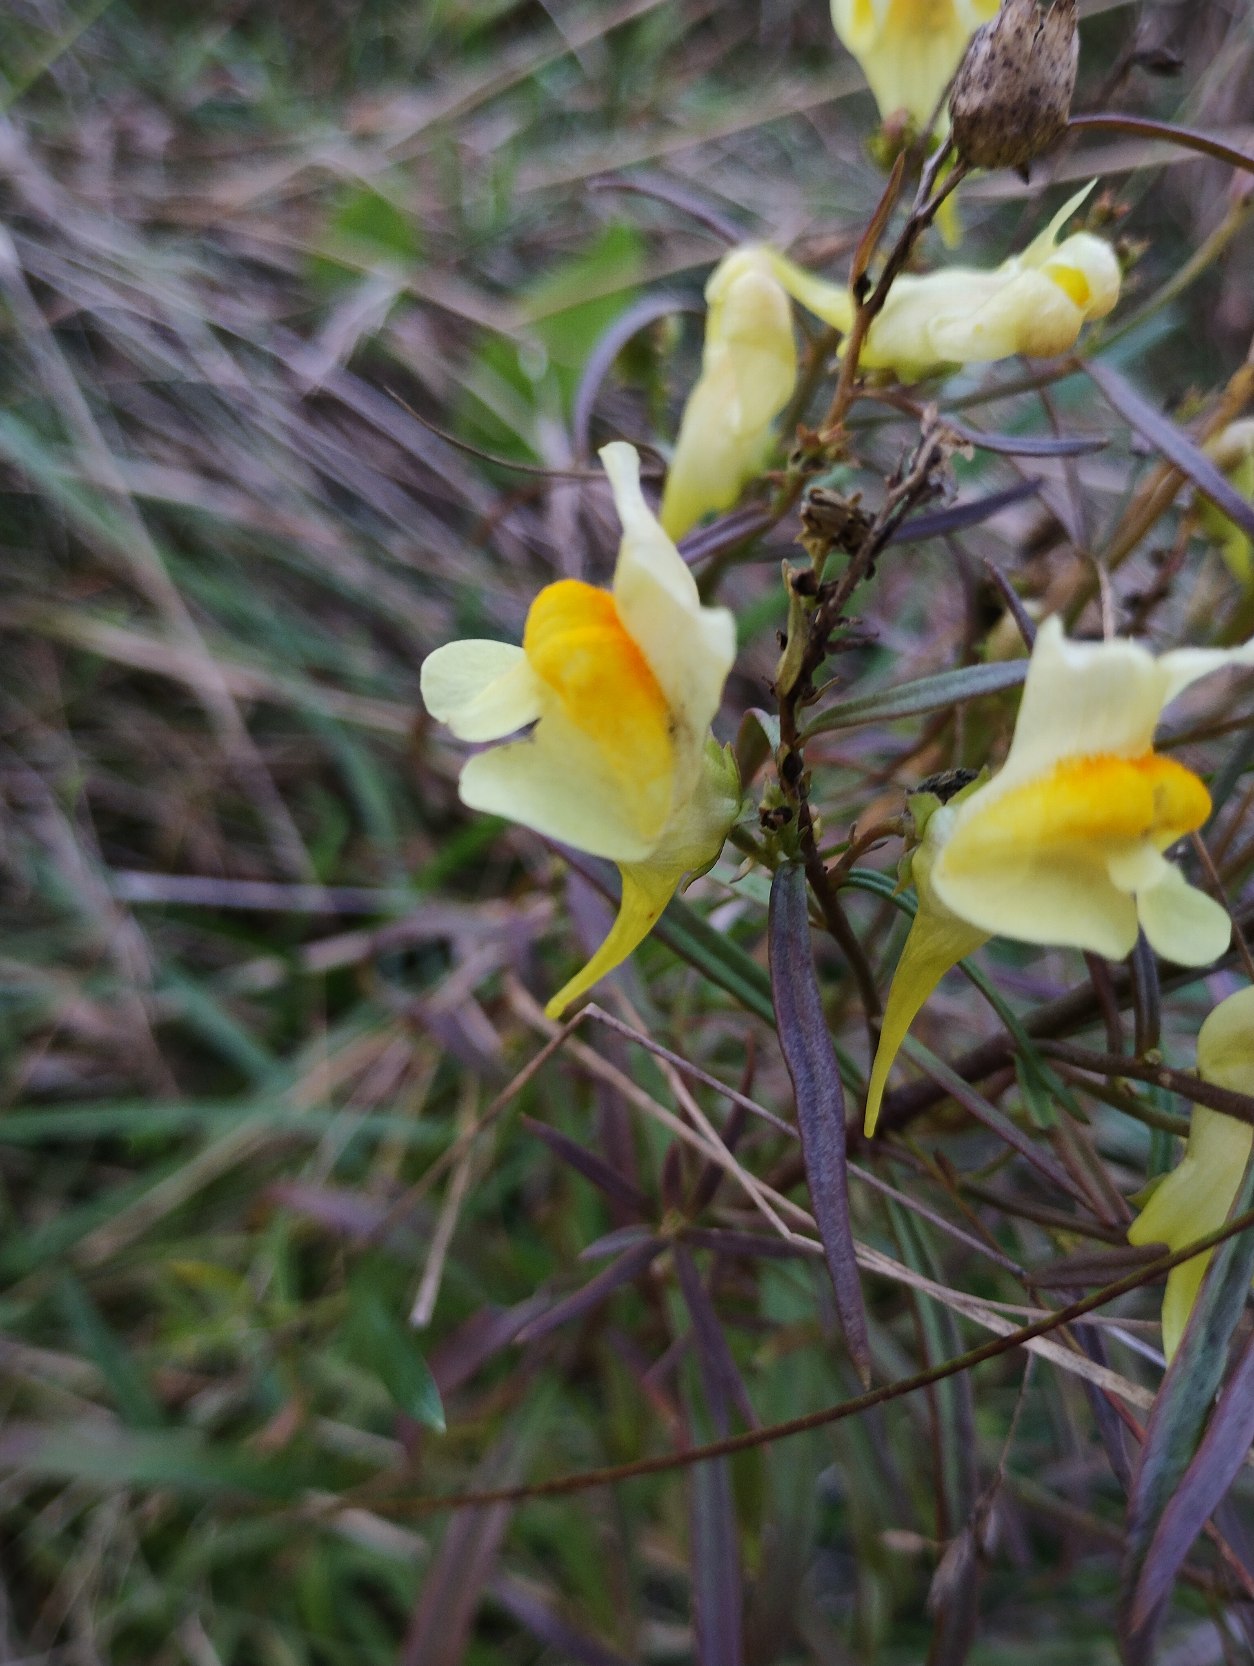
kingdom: Plantae
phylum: Tracheophyta
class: Magnoliopsida
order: Lamiales
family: Plantaginaceae
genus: Linaria
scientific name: Linaria vulgaris
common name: Almindelig torskemund
